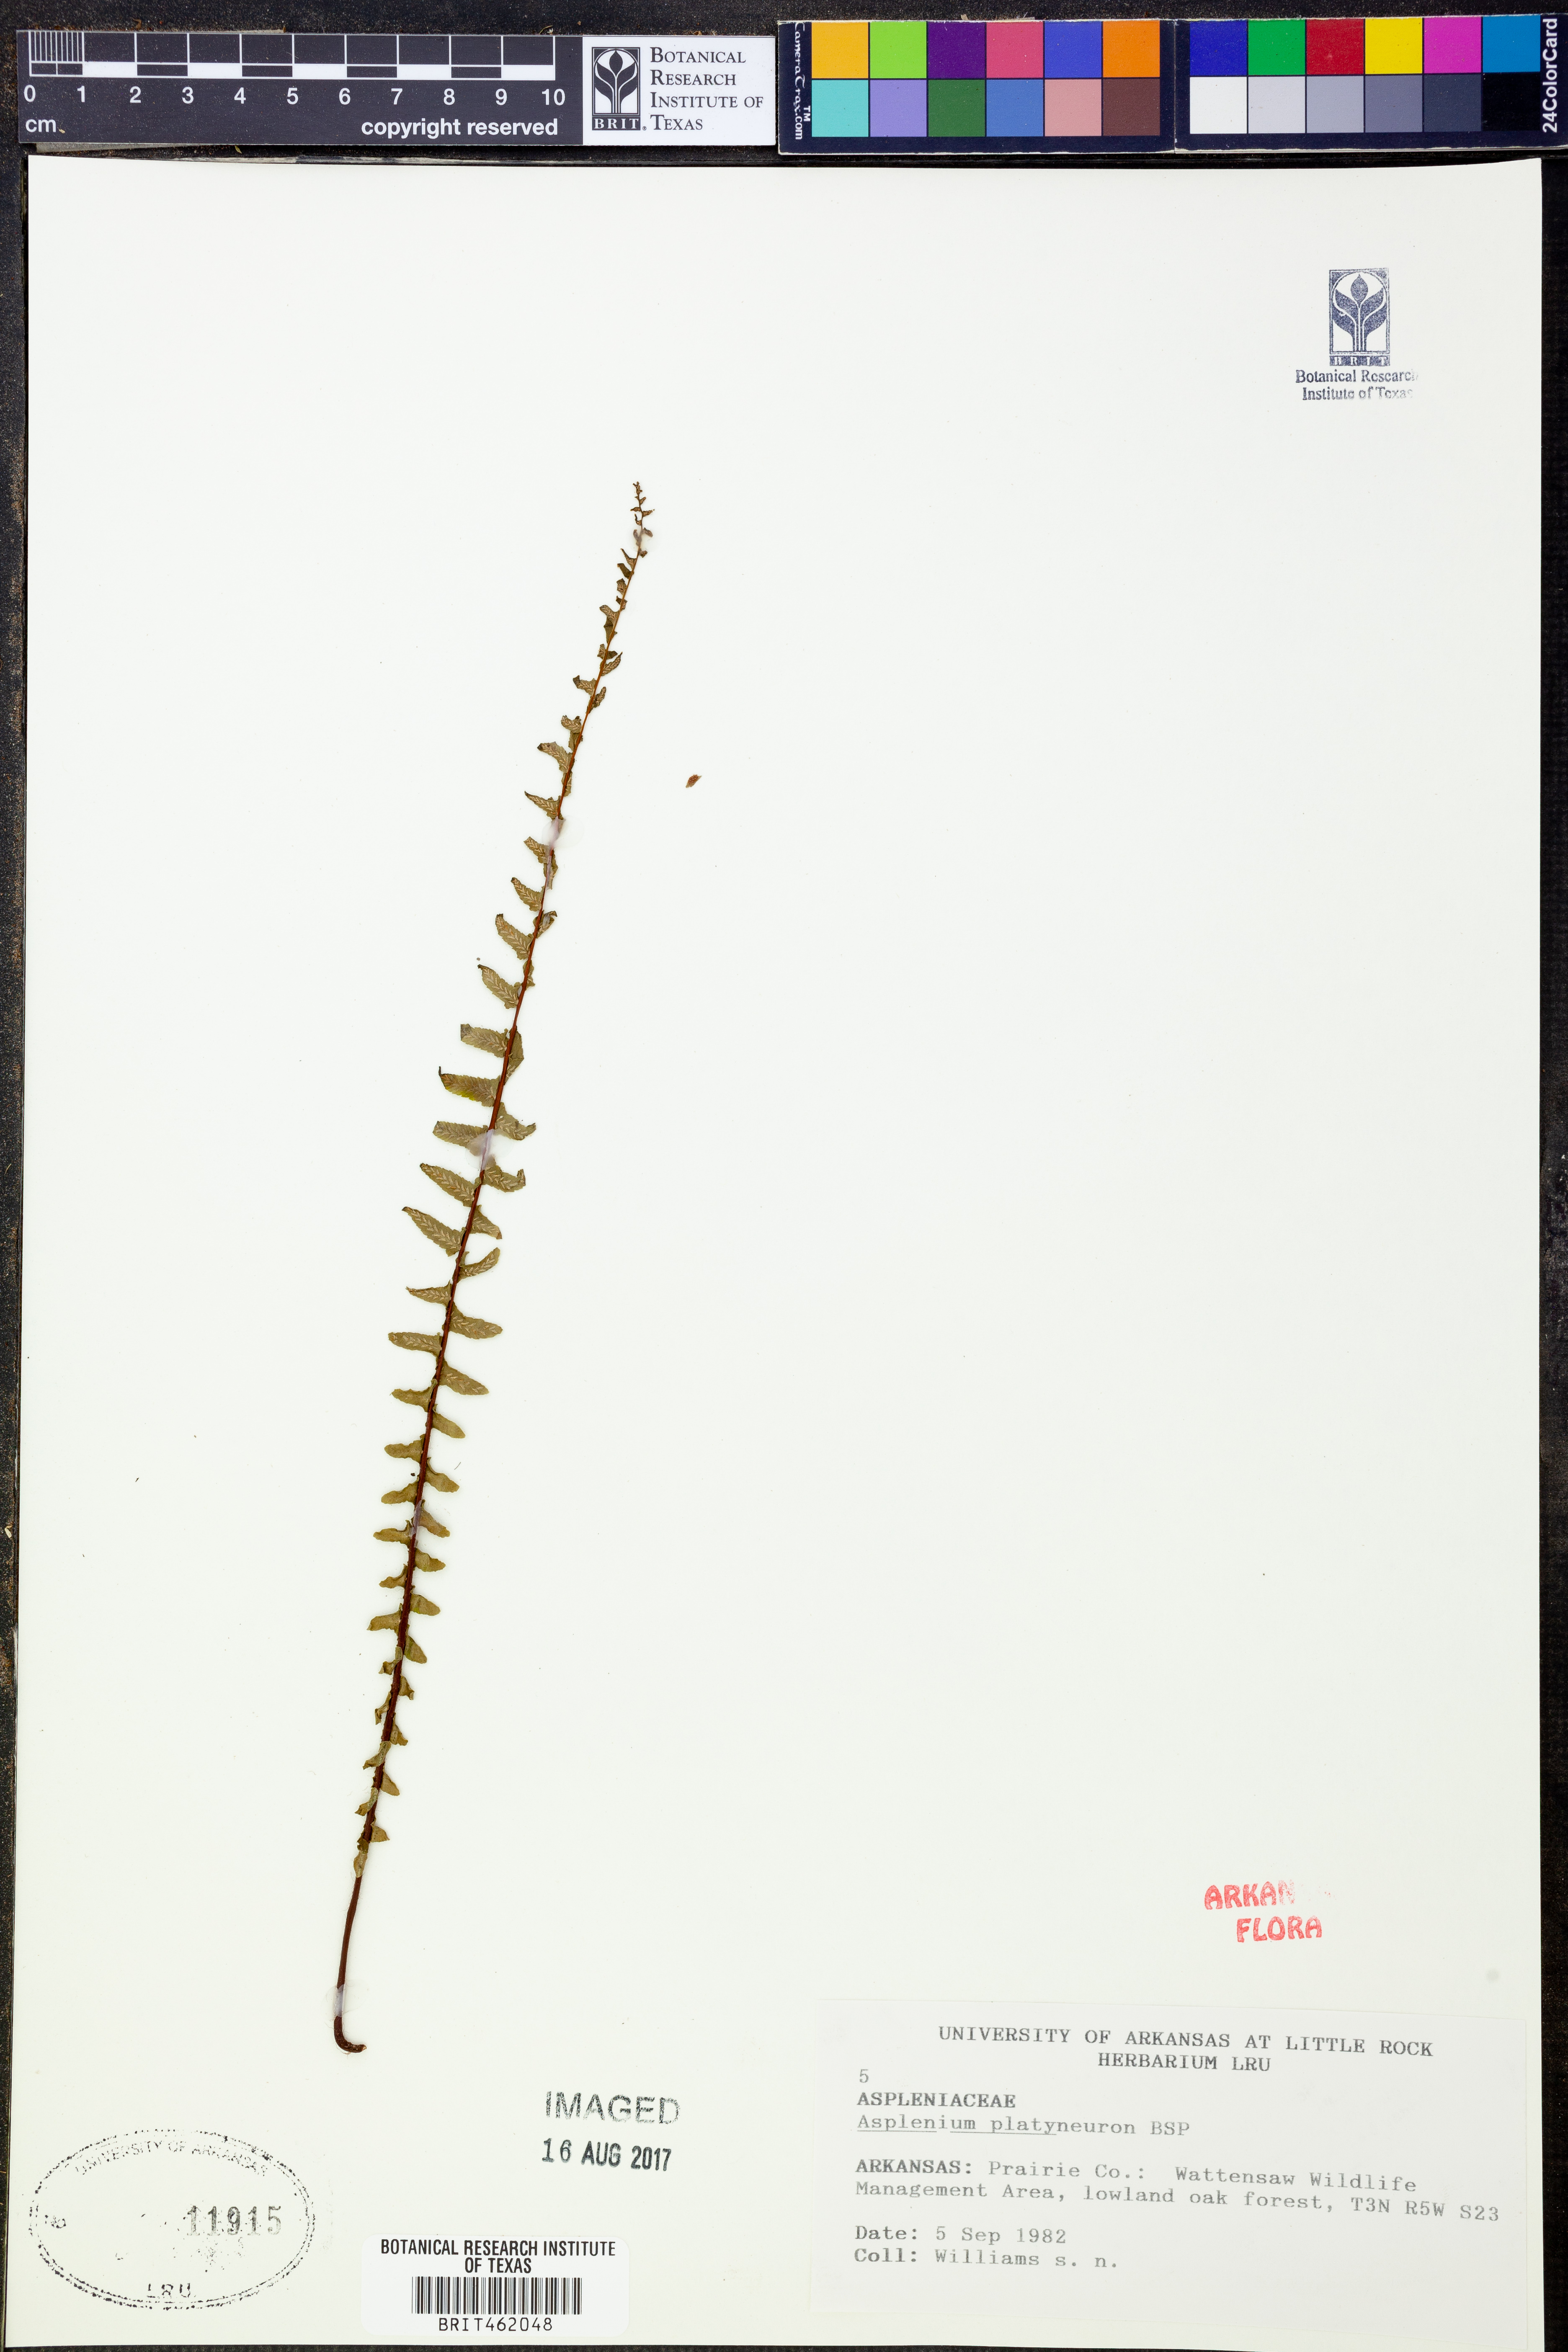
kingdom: Plantae
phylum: Tracheophyta
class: Polypodiopsida
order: Polypodiales
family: Aspleniaceae
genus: Asplenium
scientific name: Asplenium platyneuron
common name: Ebony spleenwort
